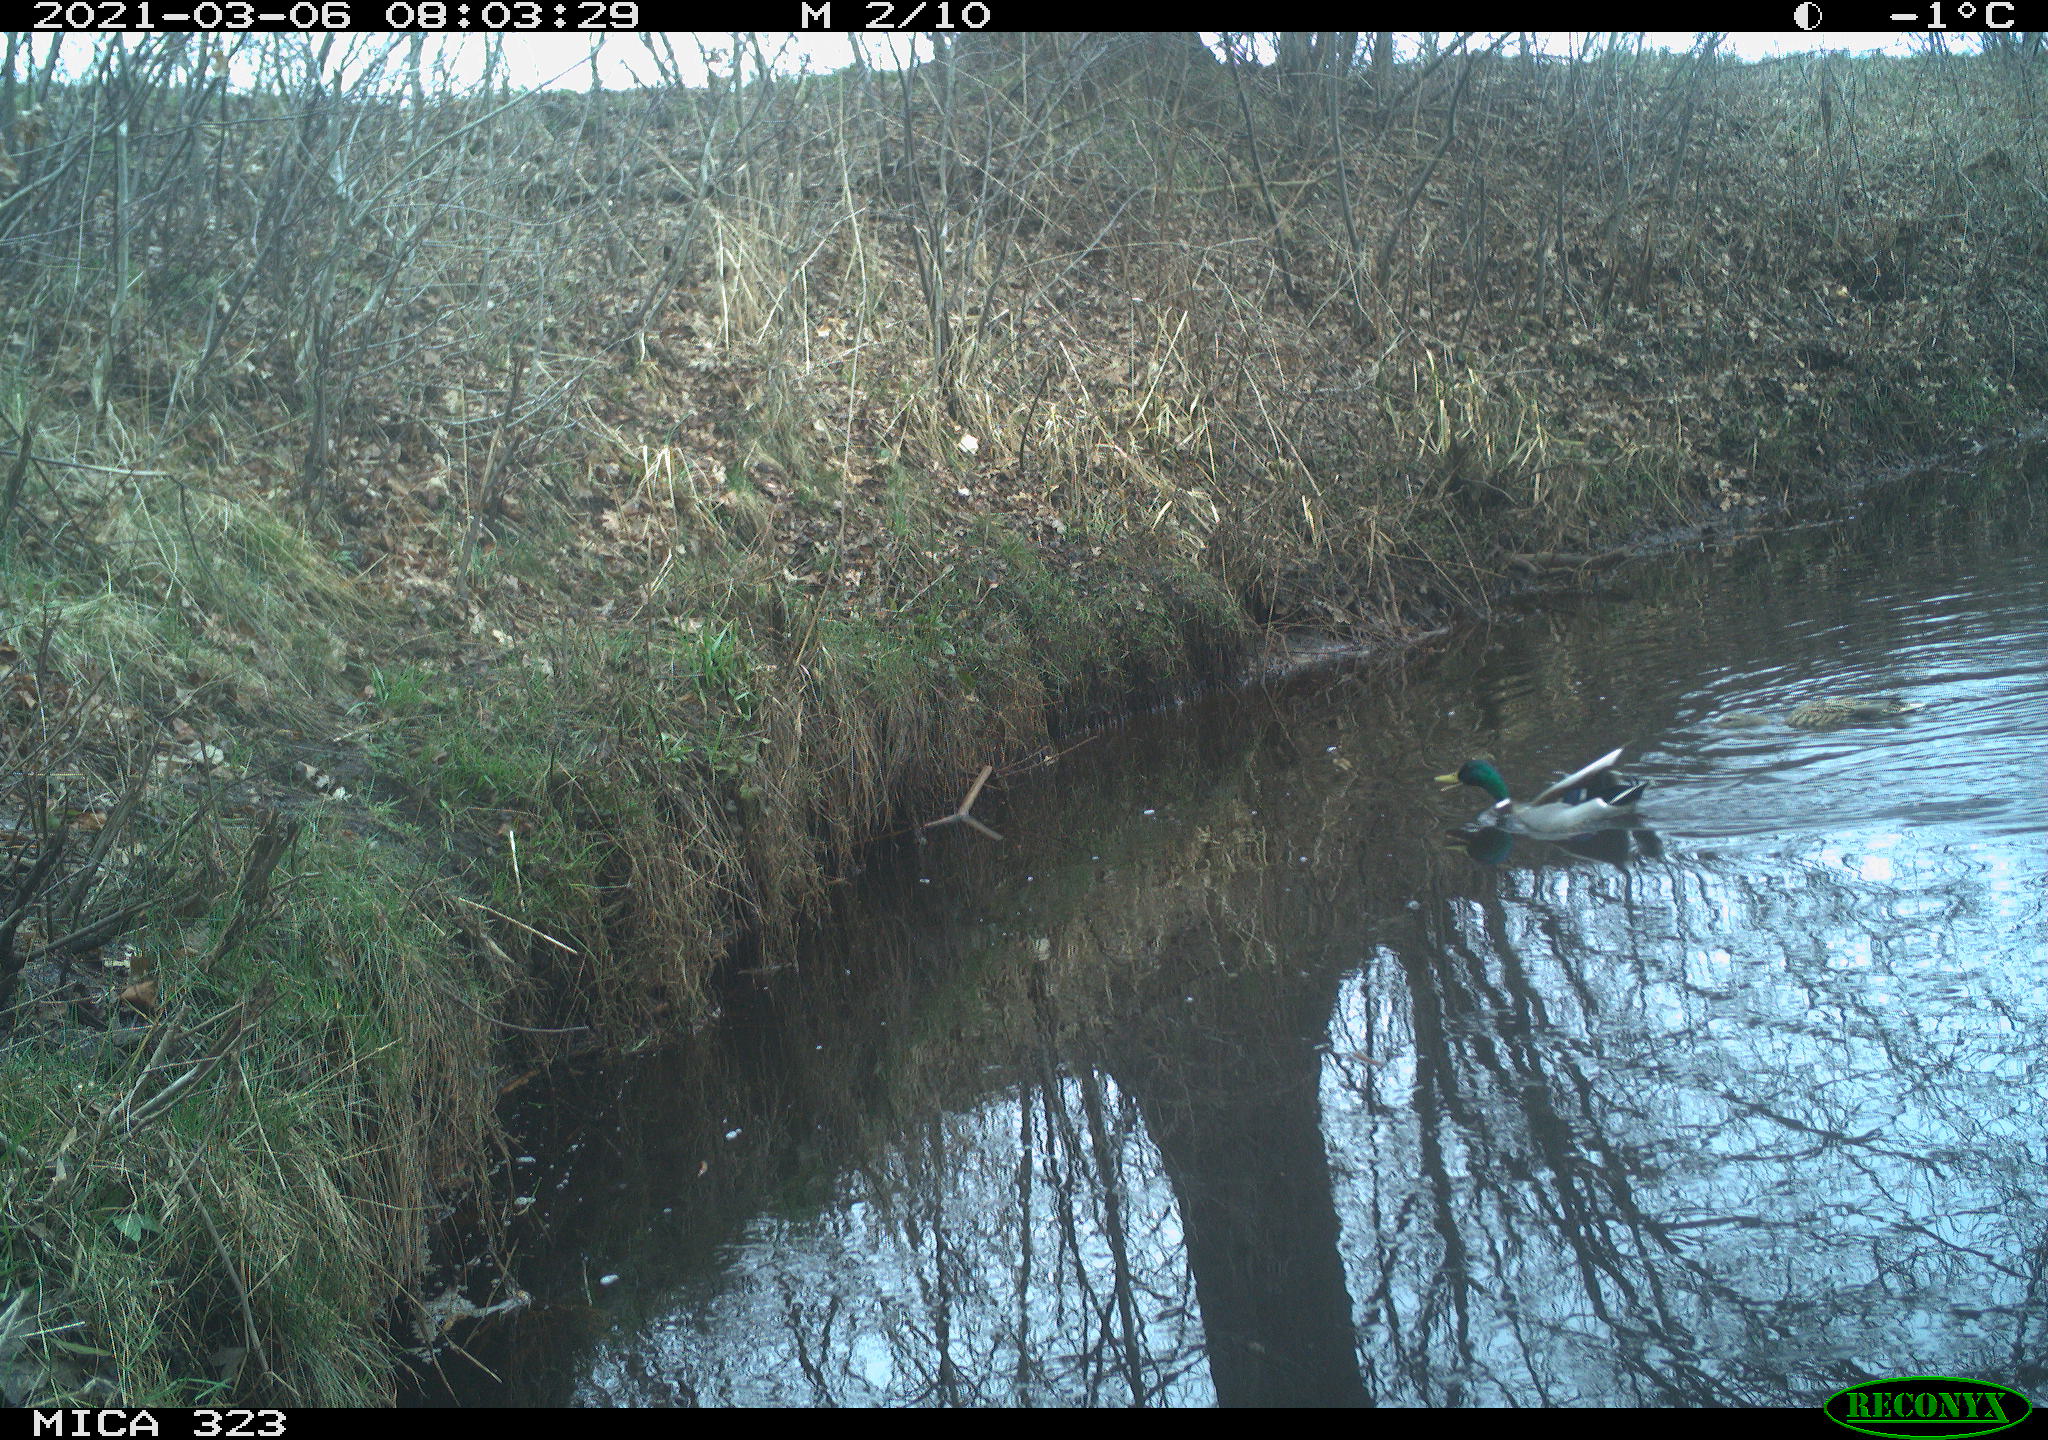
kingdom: Animalia
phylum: Chordata
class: Aves
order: Anseriformes
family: Anatidae
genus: Anas
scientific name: Anas platyrhynchos
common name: Mallard
